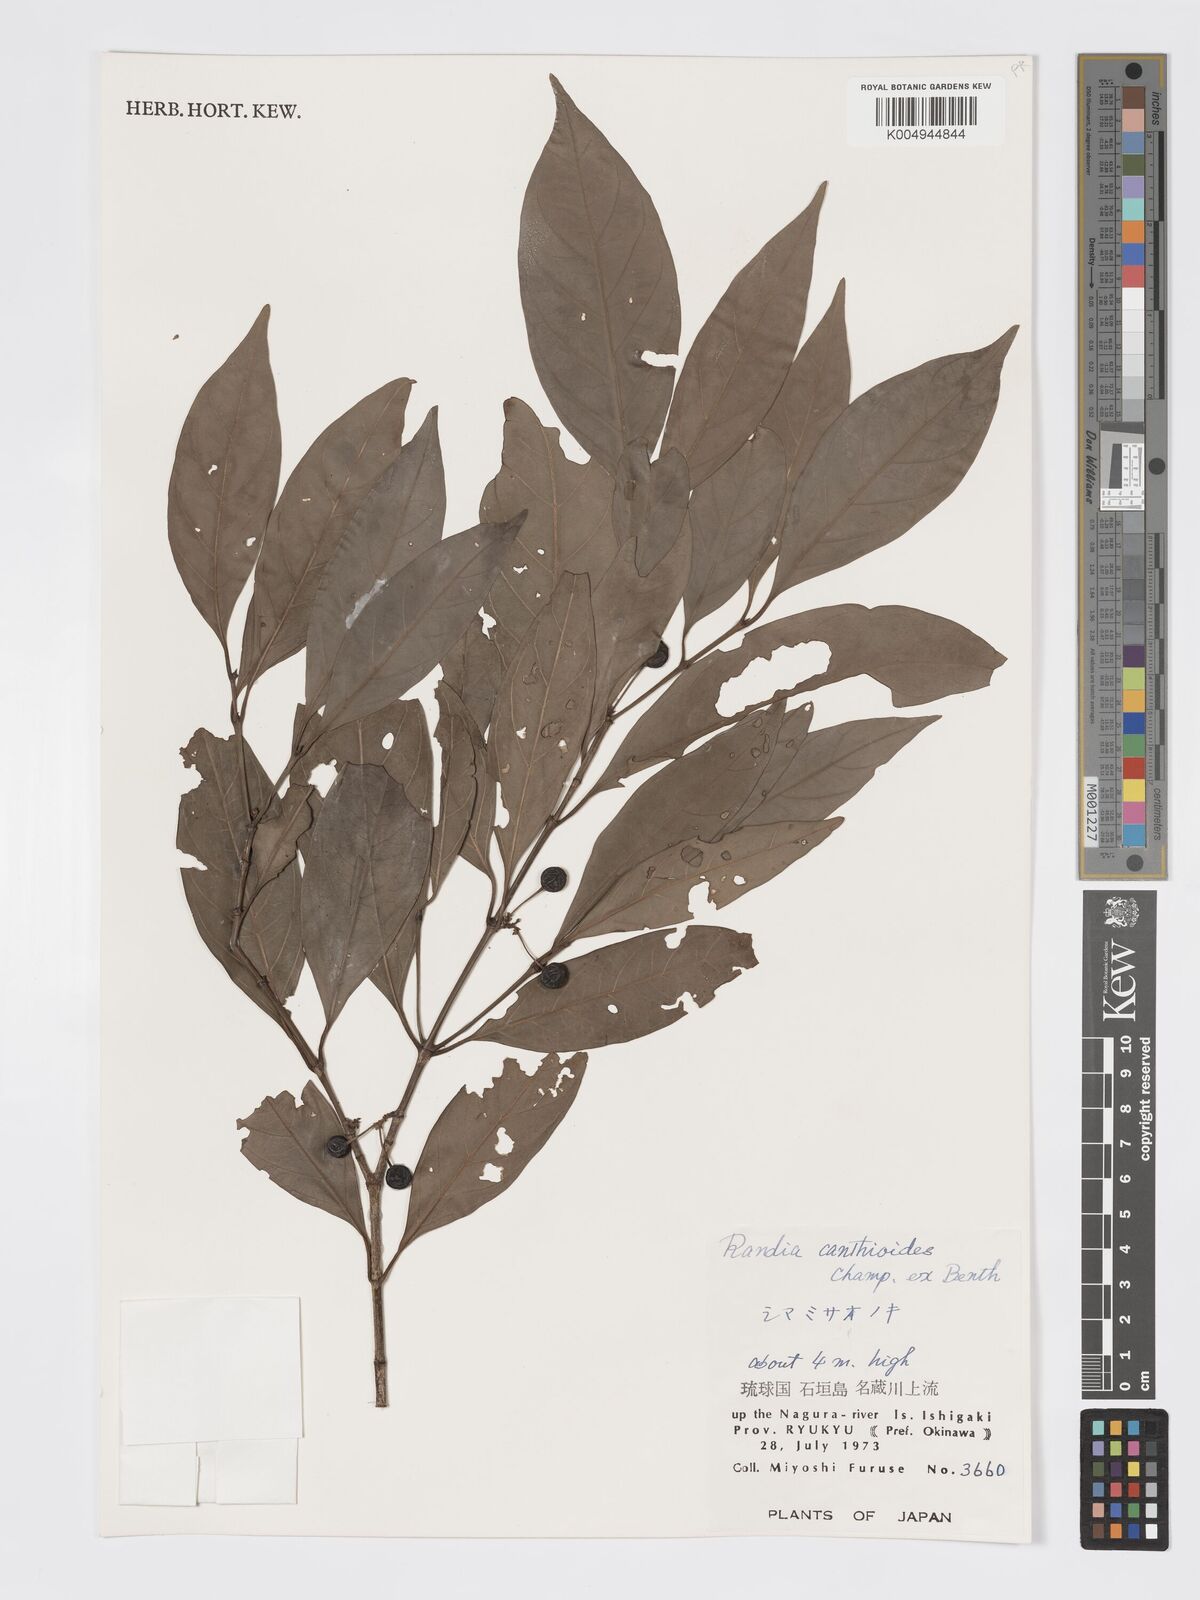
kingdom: Plantae
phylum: Tracheophyta
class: Magnoliopsida
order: Gentianales
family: Rubiaceae
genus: Aidia
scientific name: Aidia canthioides
